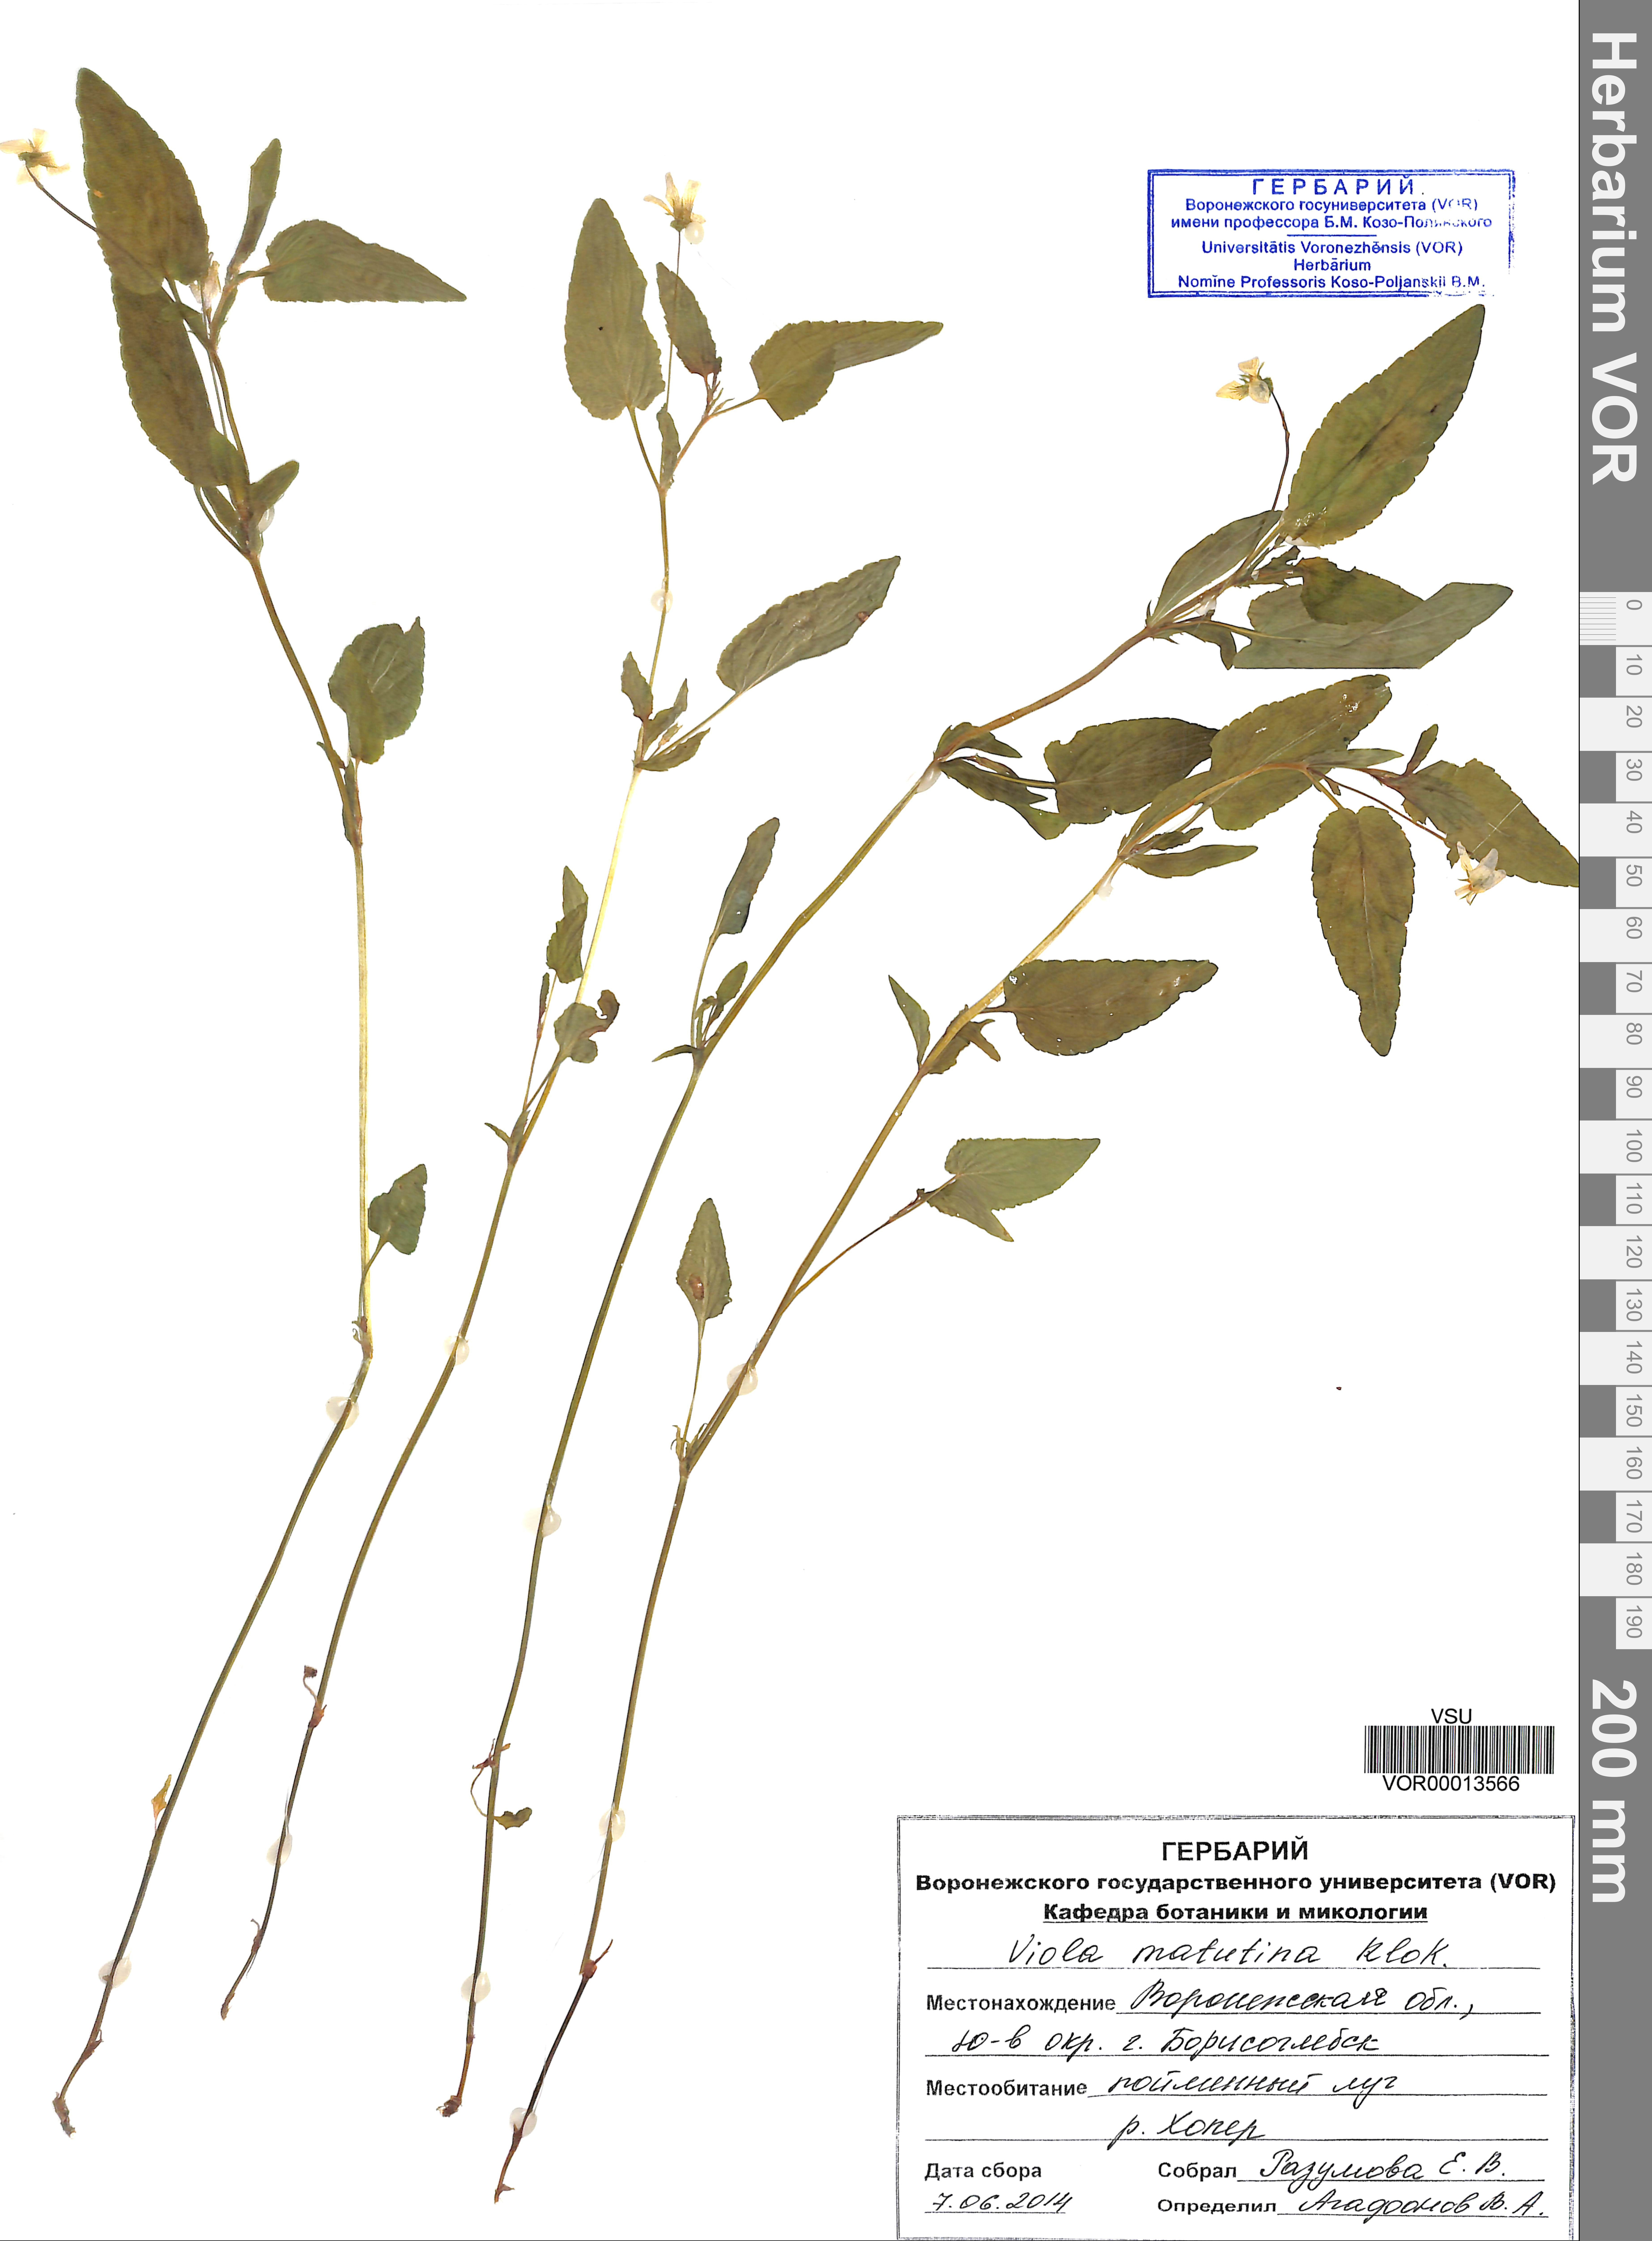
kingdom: Plantae
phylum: Tracheophyta
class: Magnoliopsida
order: Malpighiales
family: Violaceae
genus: Viola
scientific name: Viola tricolor
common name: Pansy
